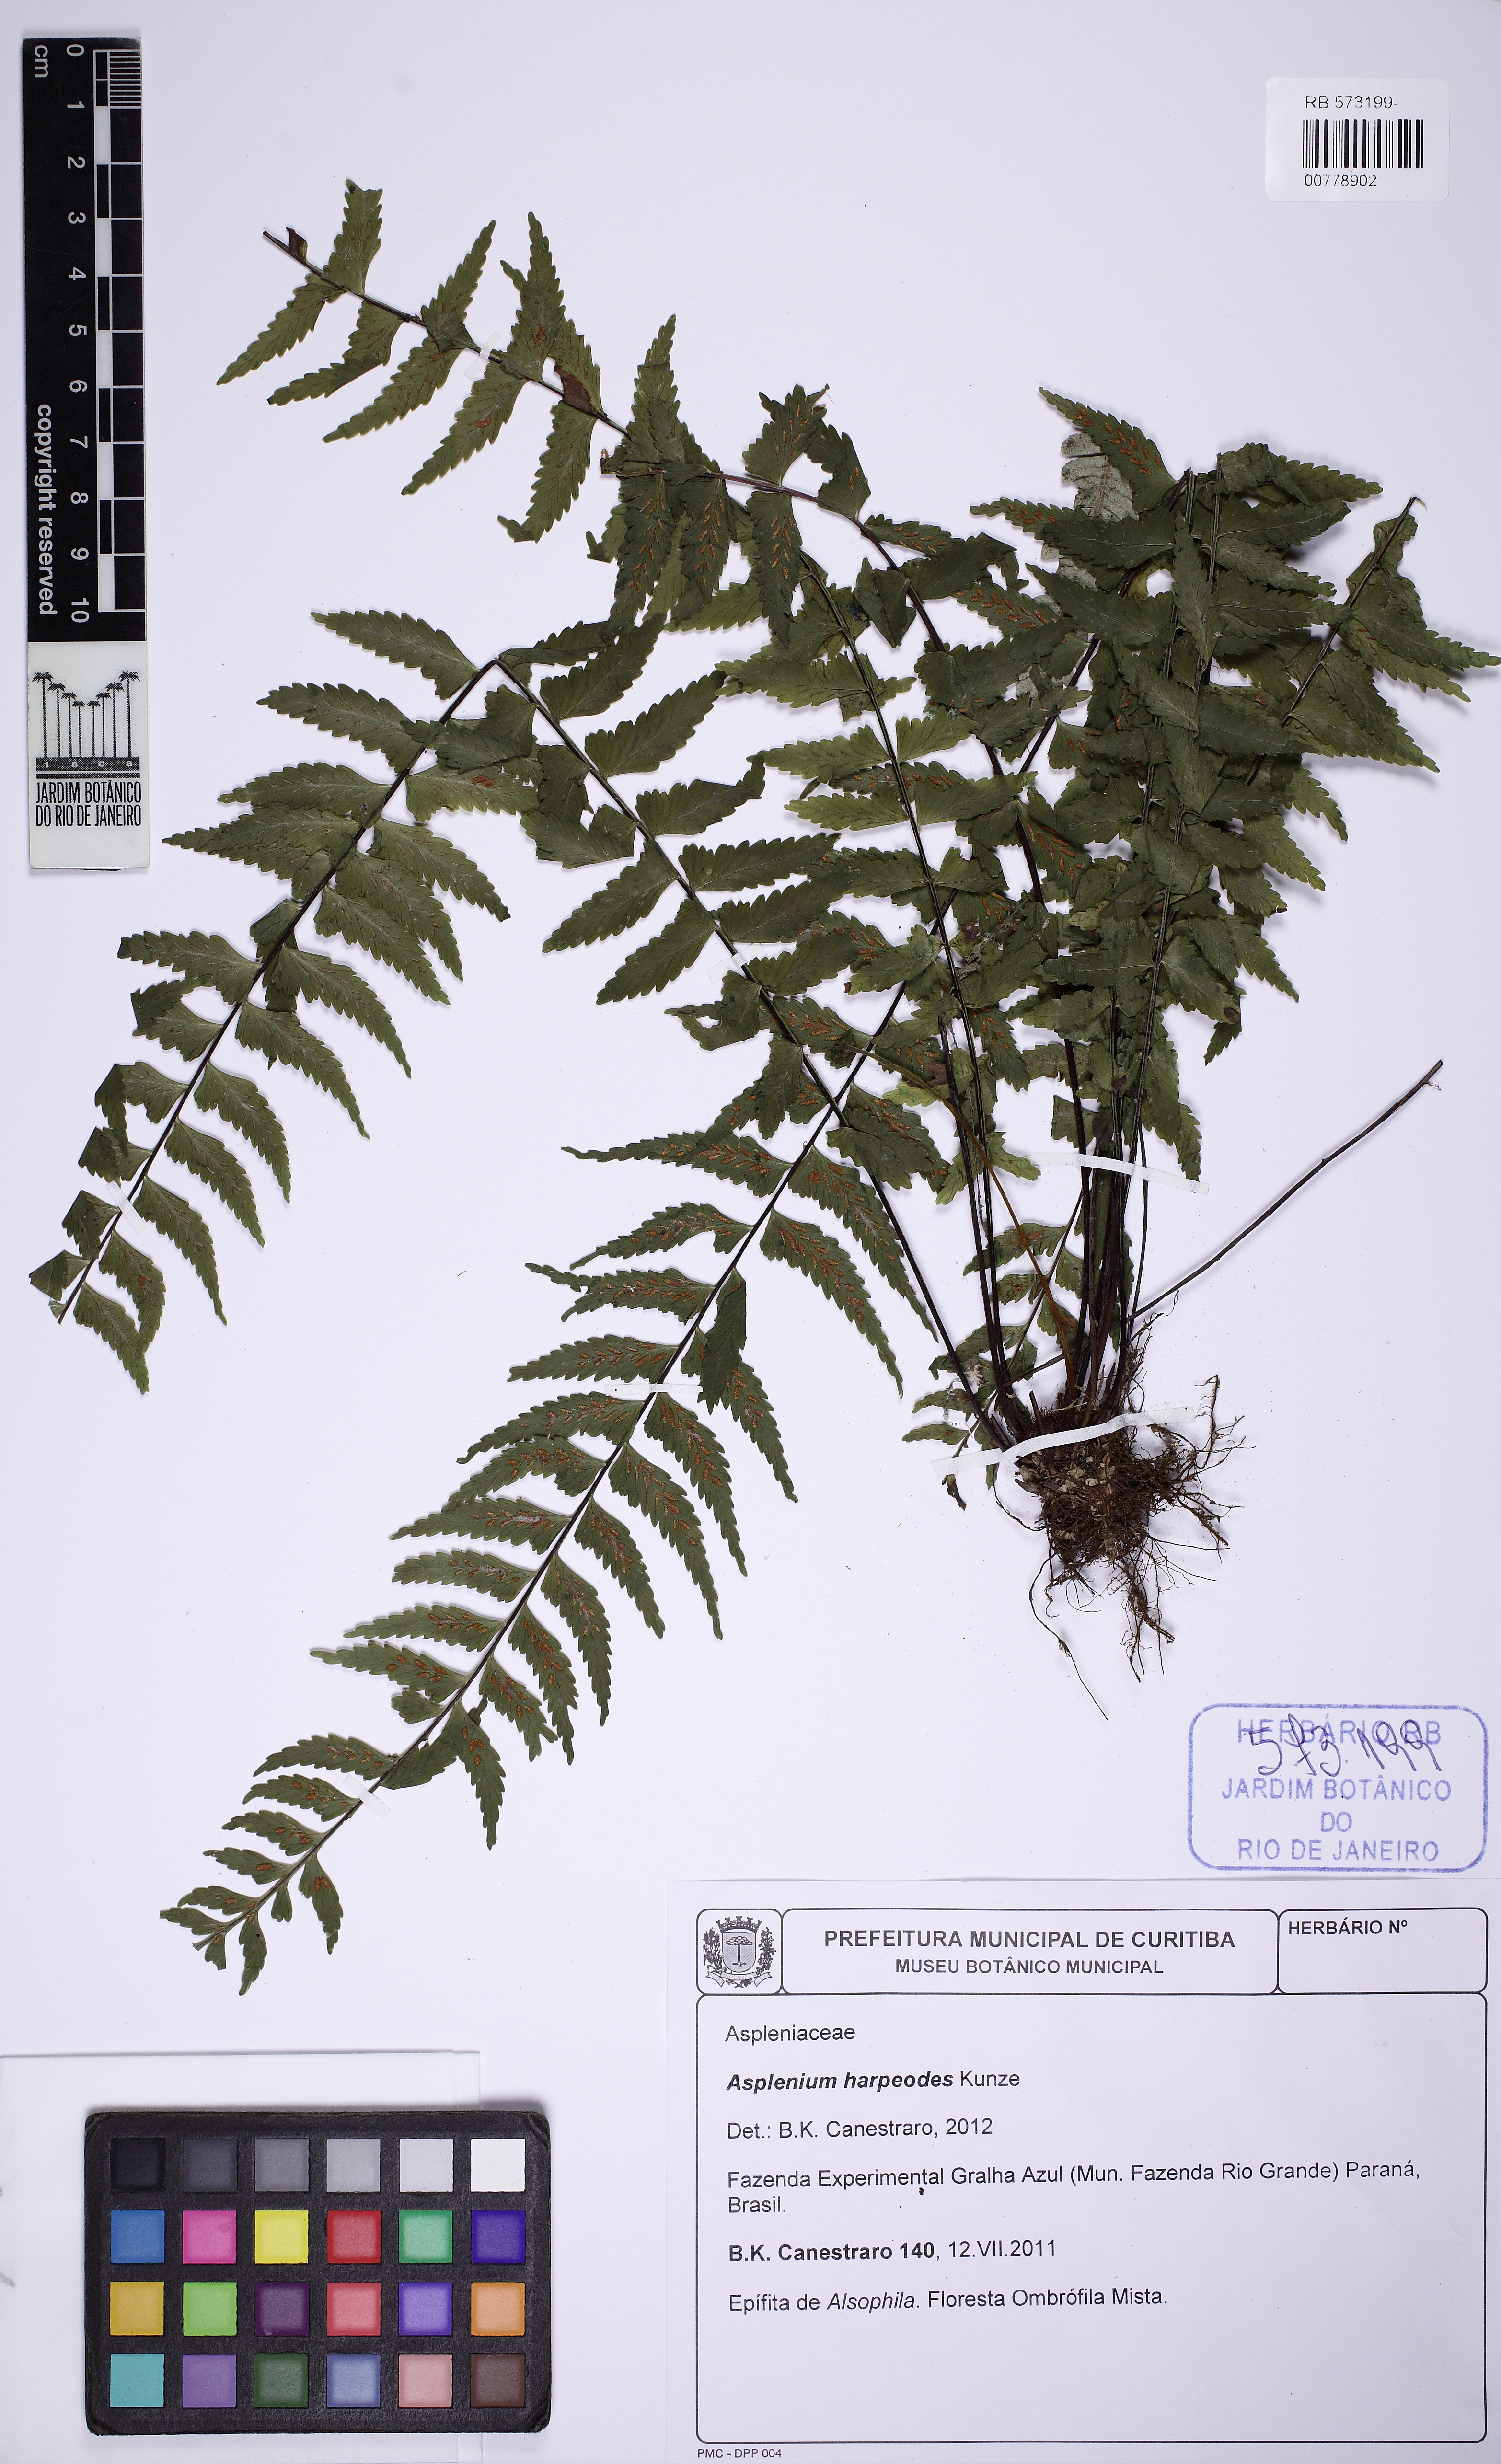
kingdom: Plantae
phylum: Tracheophyta
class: Polypodiopsida
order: Polypodiales
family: Aspleniaceae
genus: Asplenium
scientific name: Asplenium harpeodes
